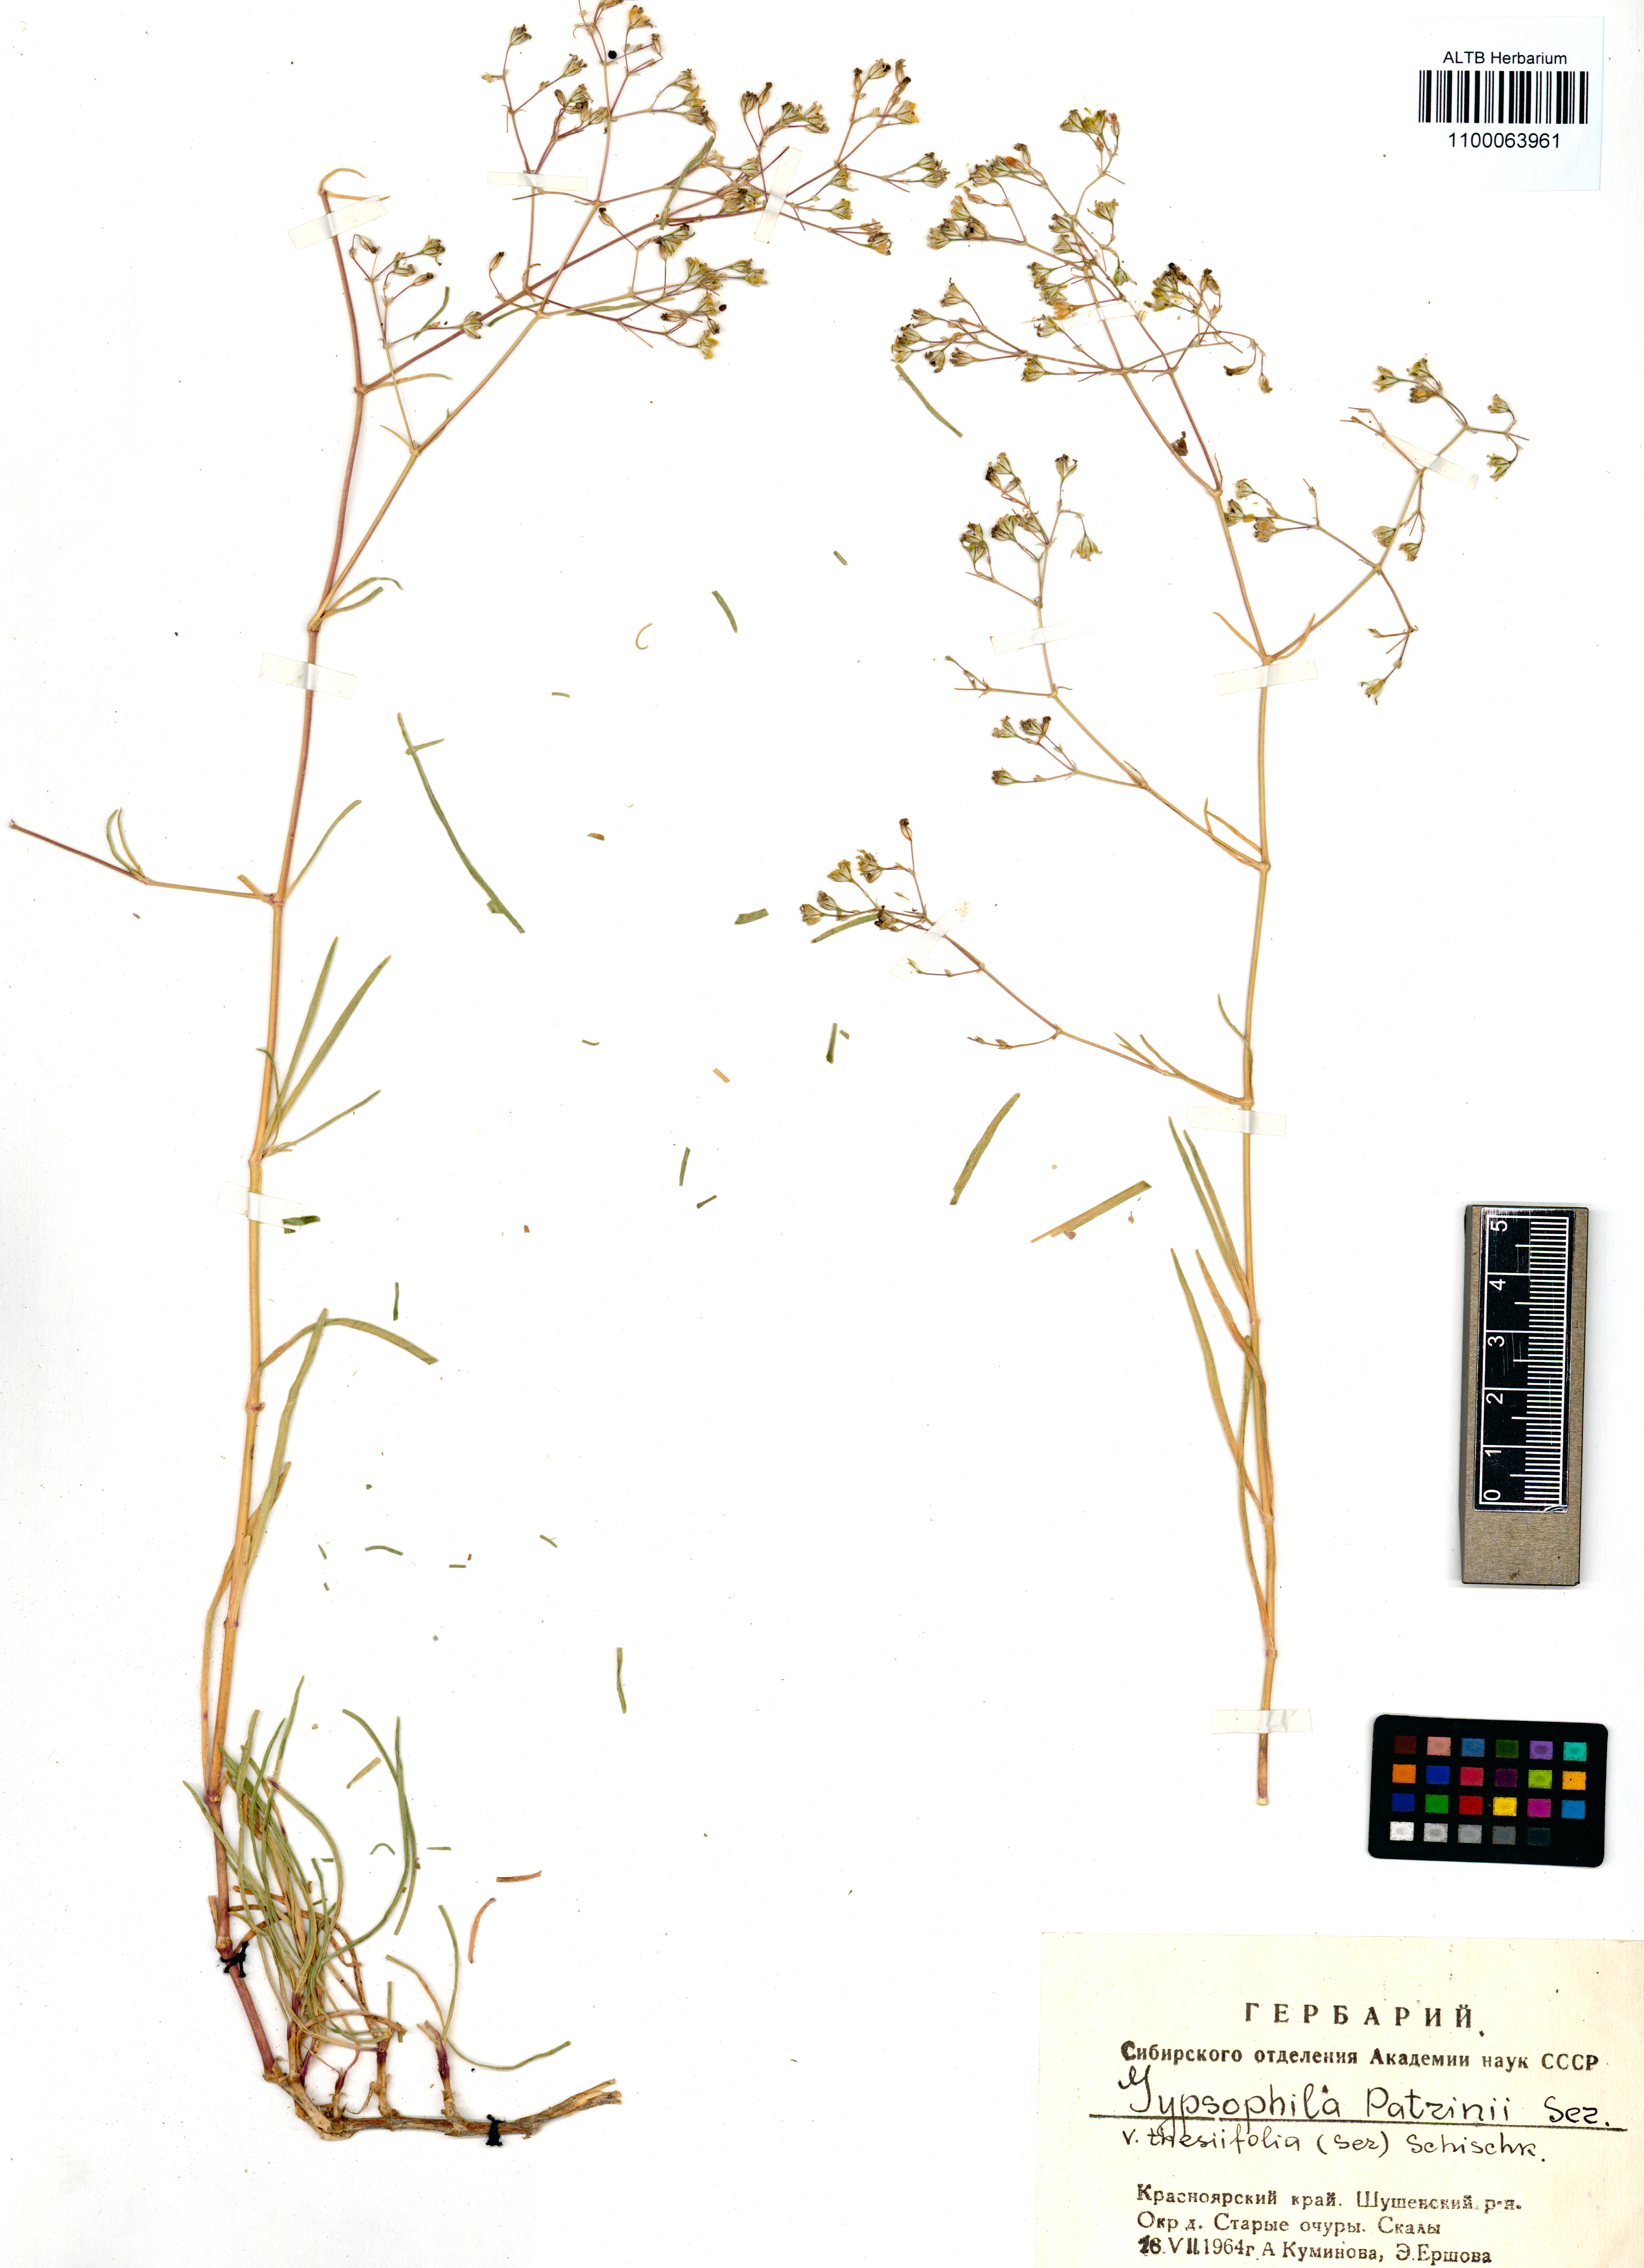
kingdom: Plantae
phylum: Tracheophyta
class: Magnoliopsida
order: Caryophyllales
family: Caryophyllaceae
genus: Gypsophila
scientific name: Gypsophila patrinii
